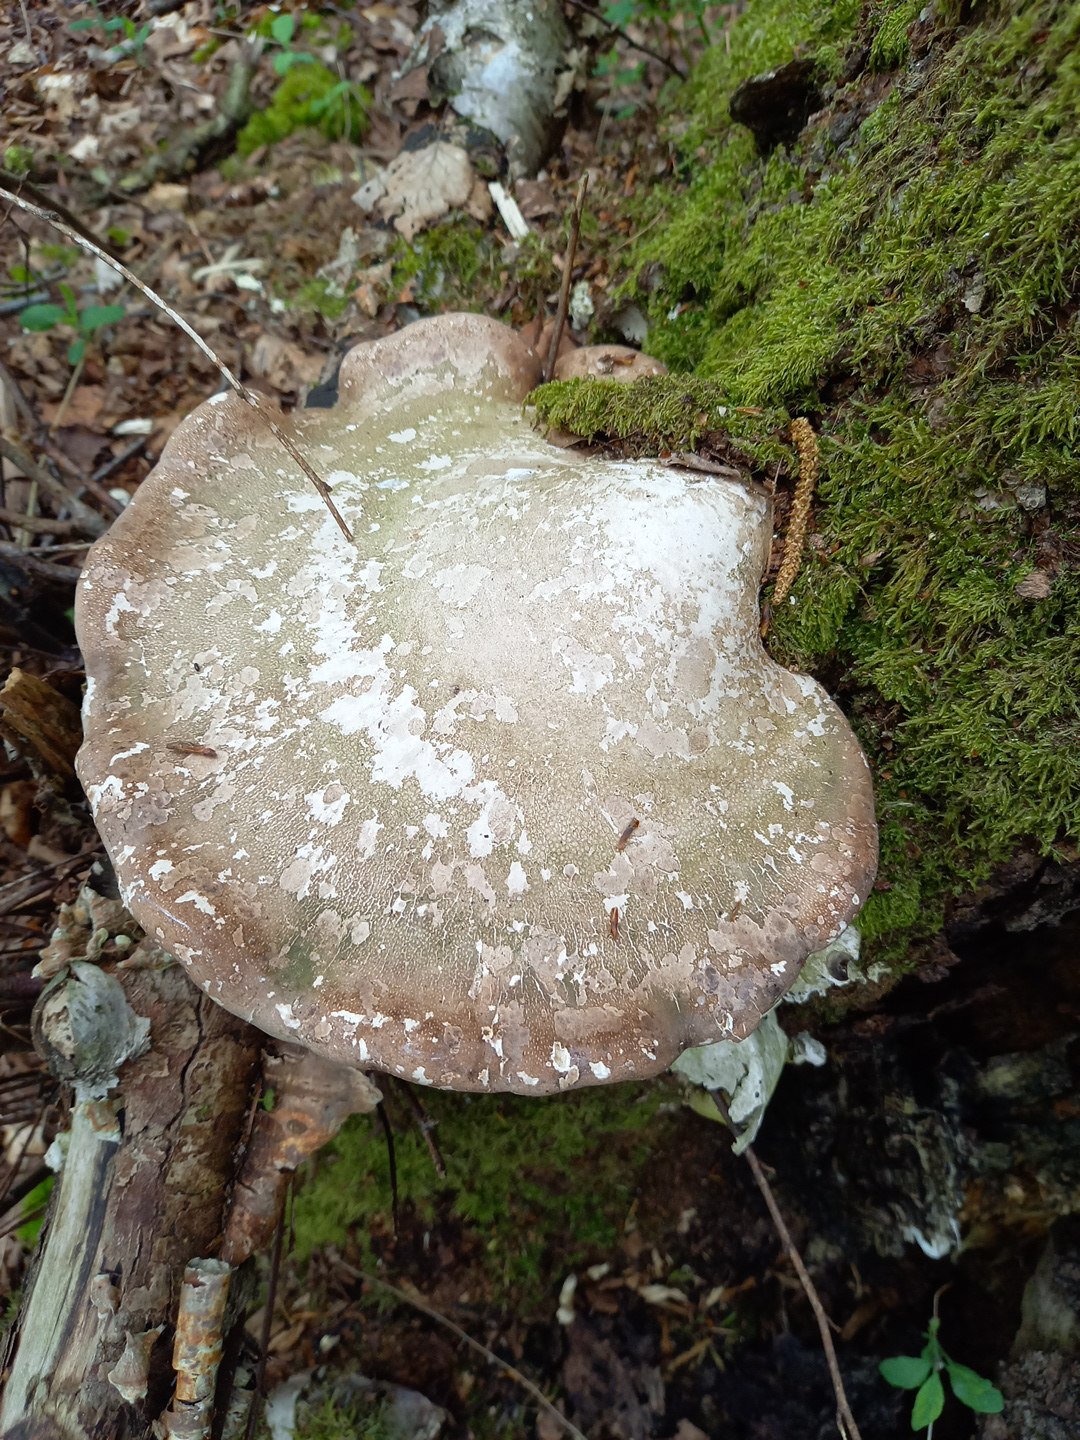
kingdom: Fungi
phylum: Basidiomycota
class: Agaricomycetes
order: Polyporales
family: Fomitopsidaceae
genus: Fomitopsis
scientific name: Fomitopsis betulina
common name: birkeporesvamp
